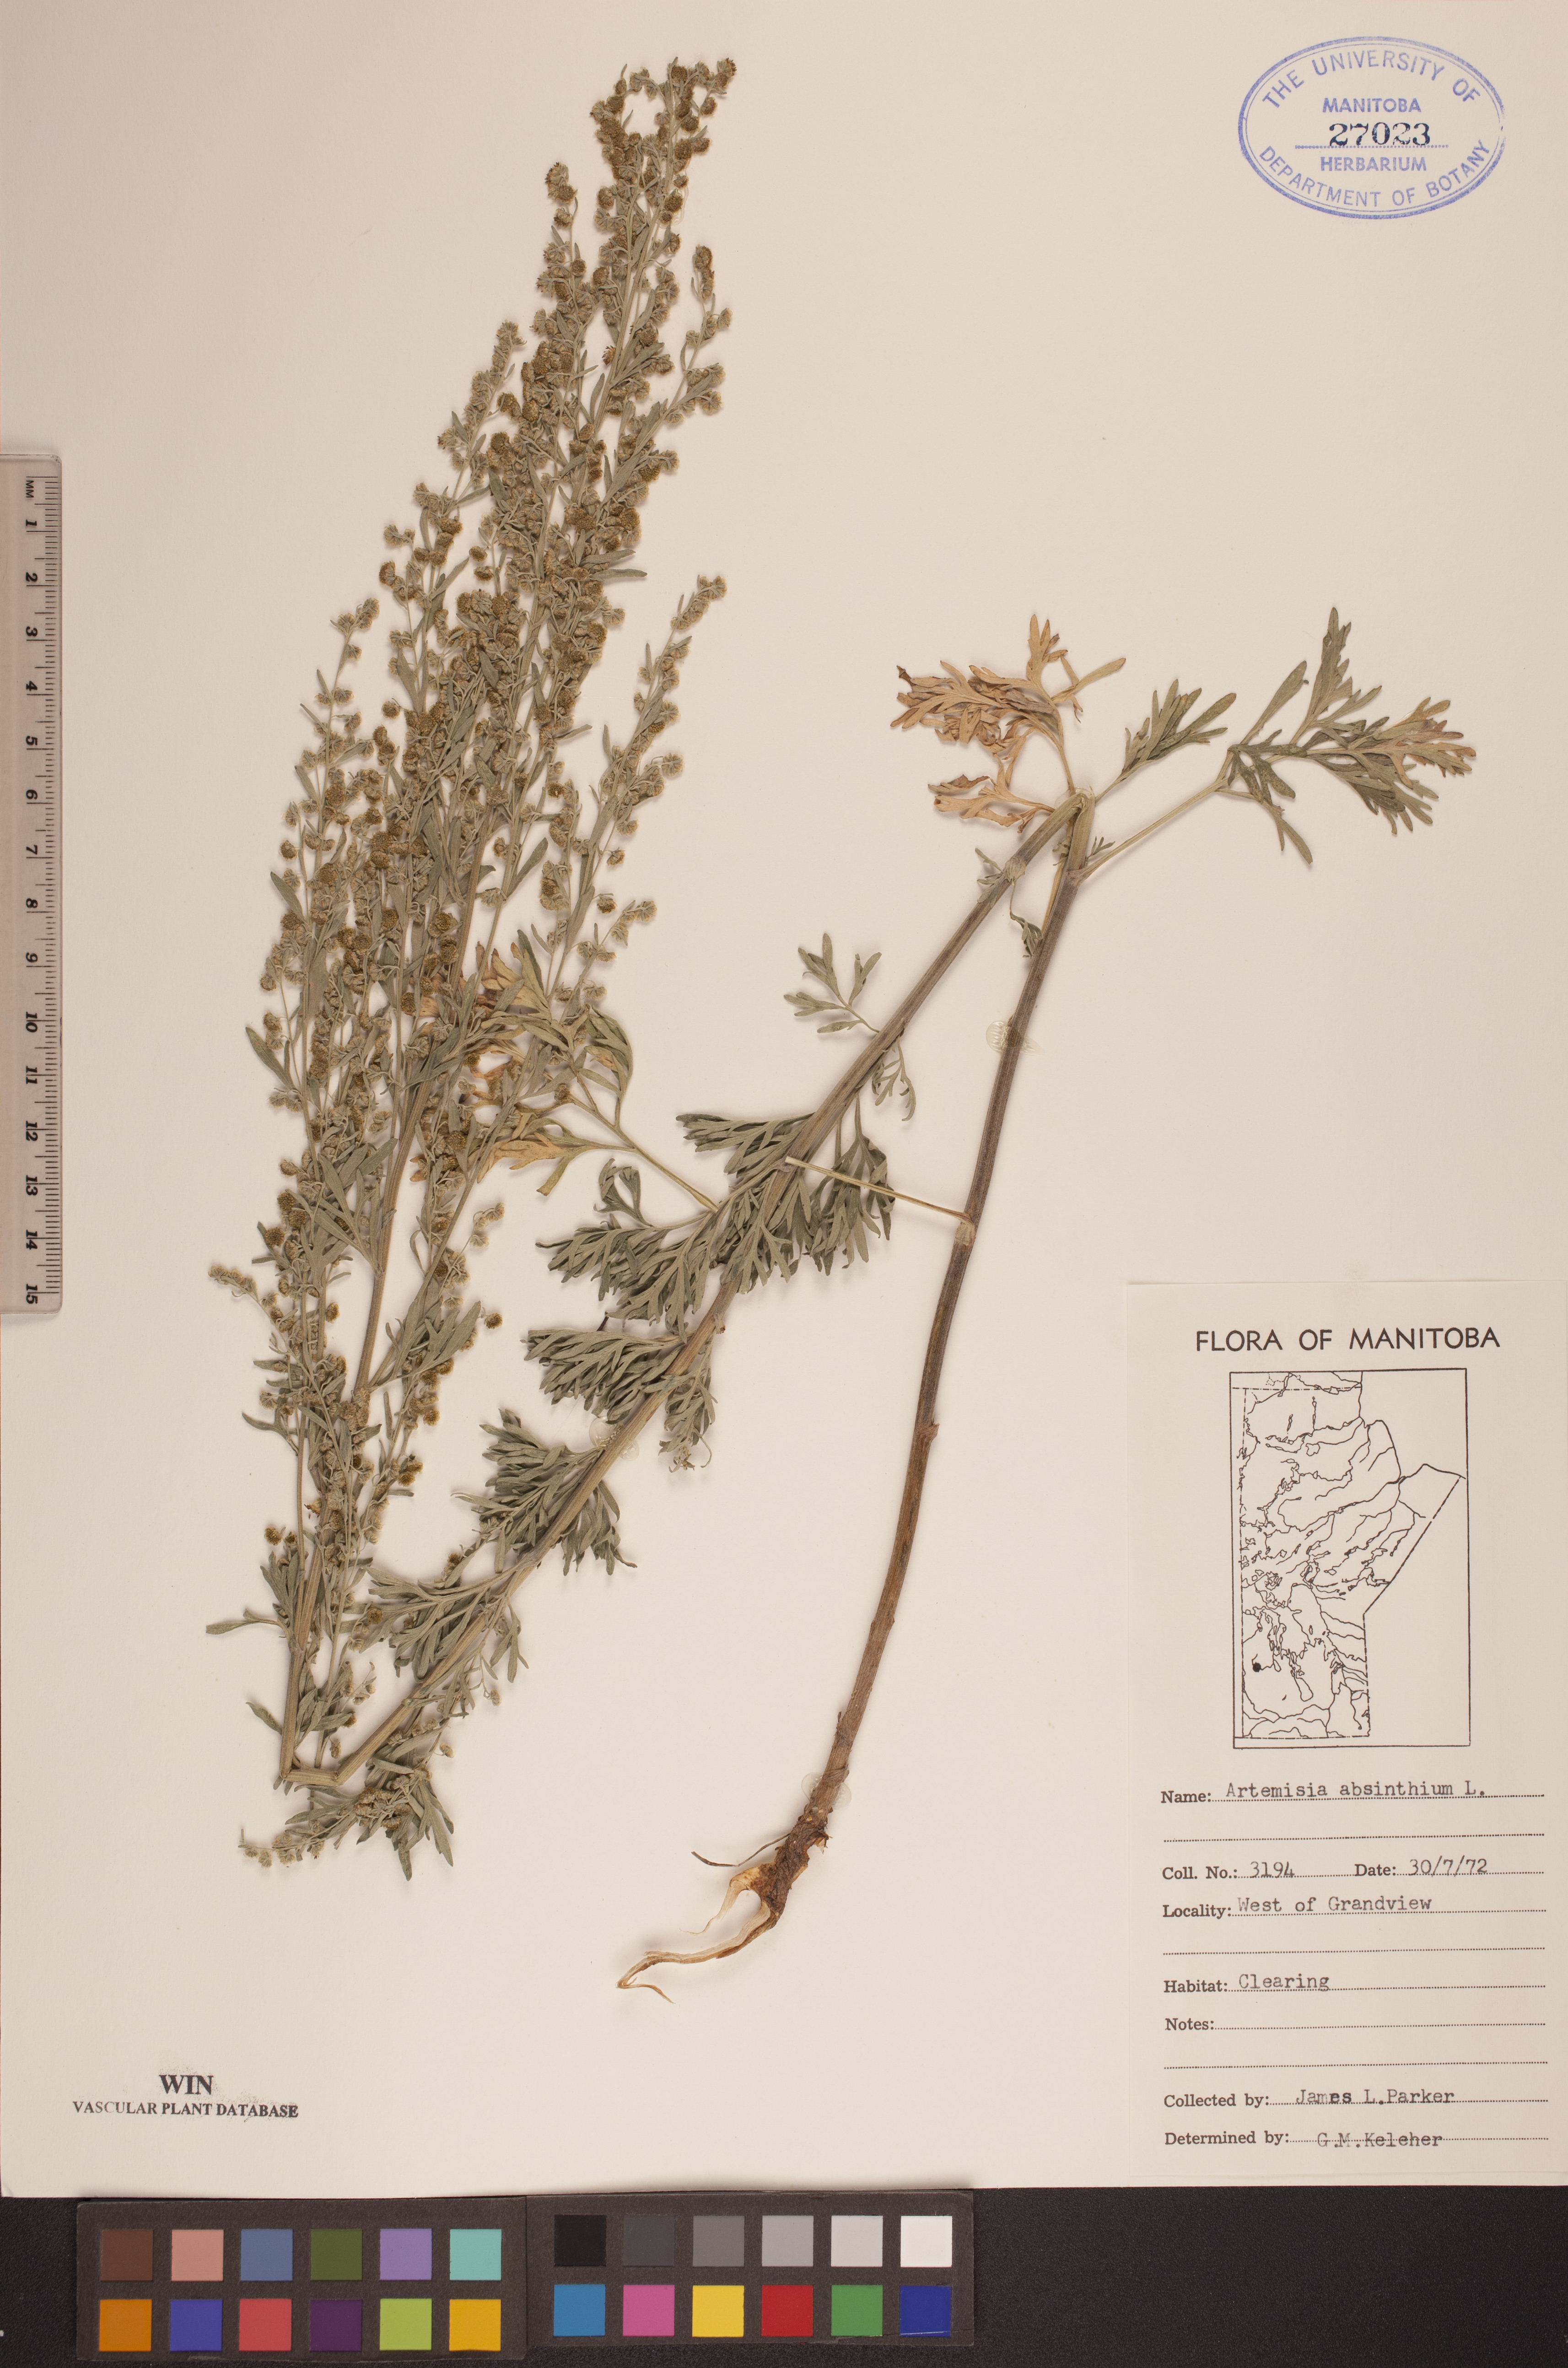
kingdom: Plantae
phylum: Tracheophyta
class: Magnoliopsida
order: Asterales
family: Asteraceae
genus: Artemisia
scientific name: Artemisia absinthium
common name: Wormwood
